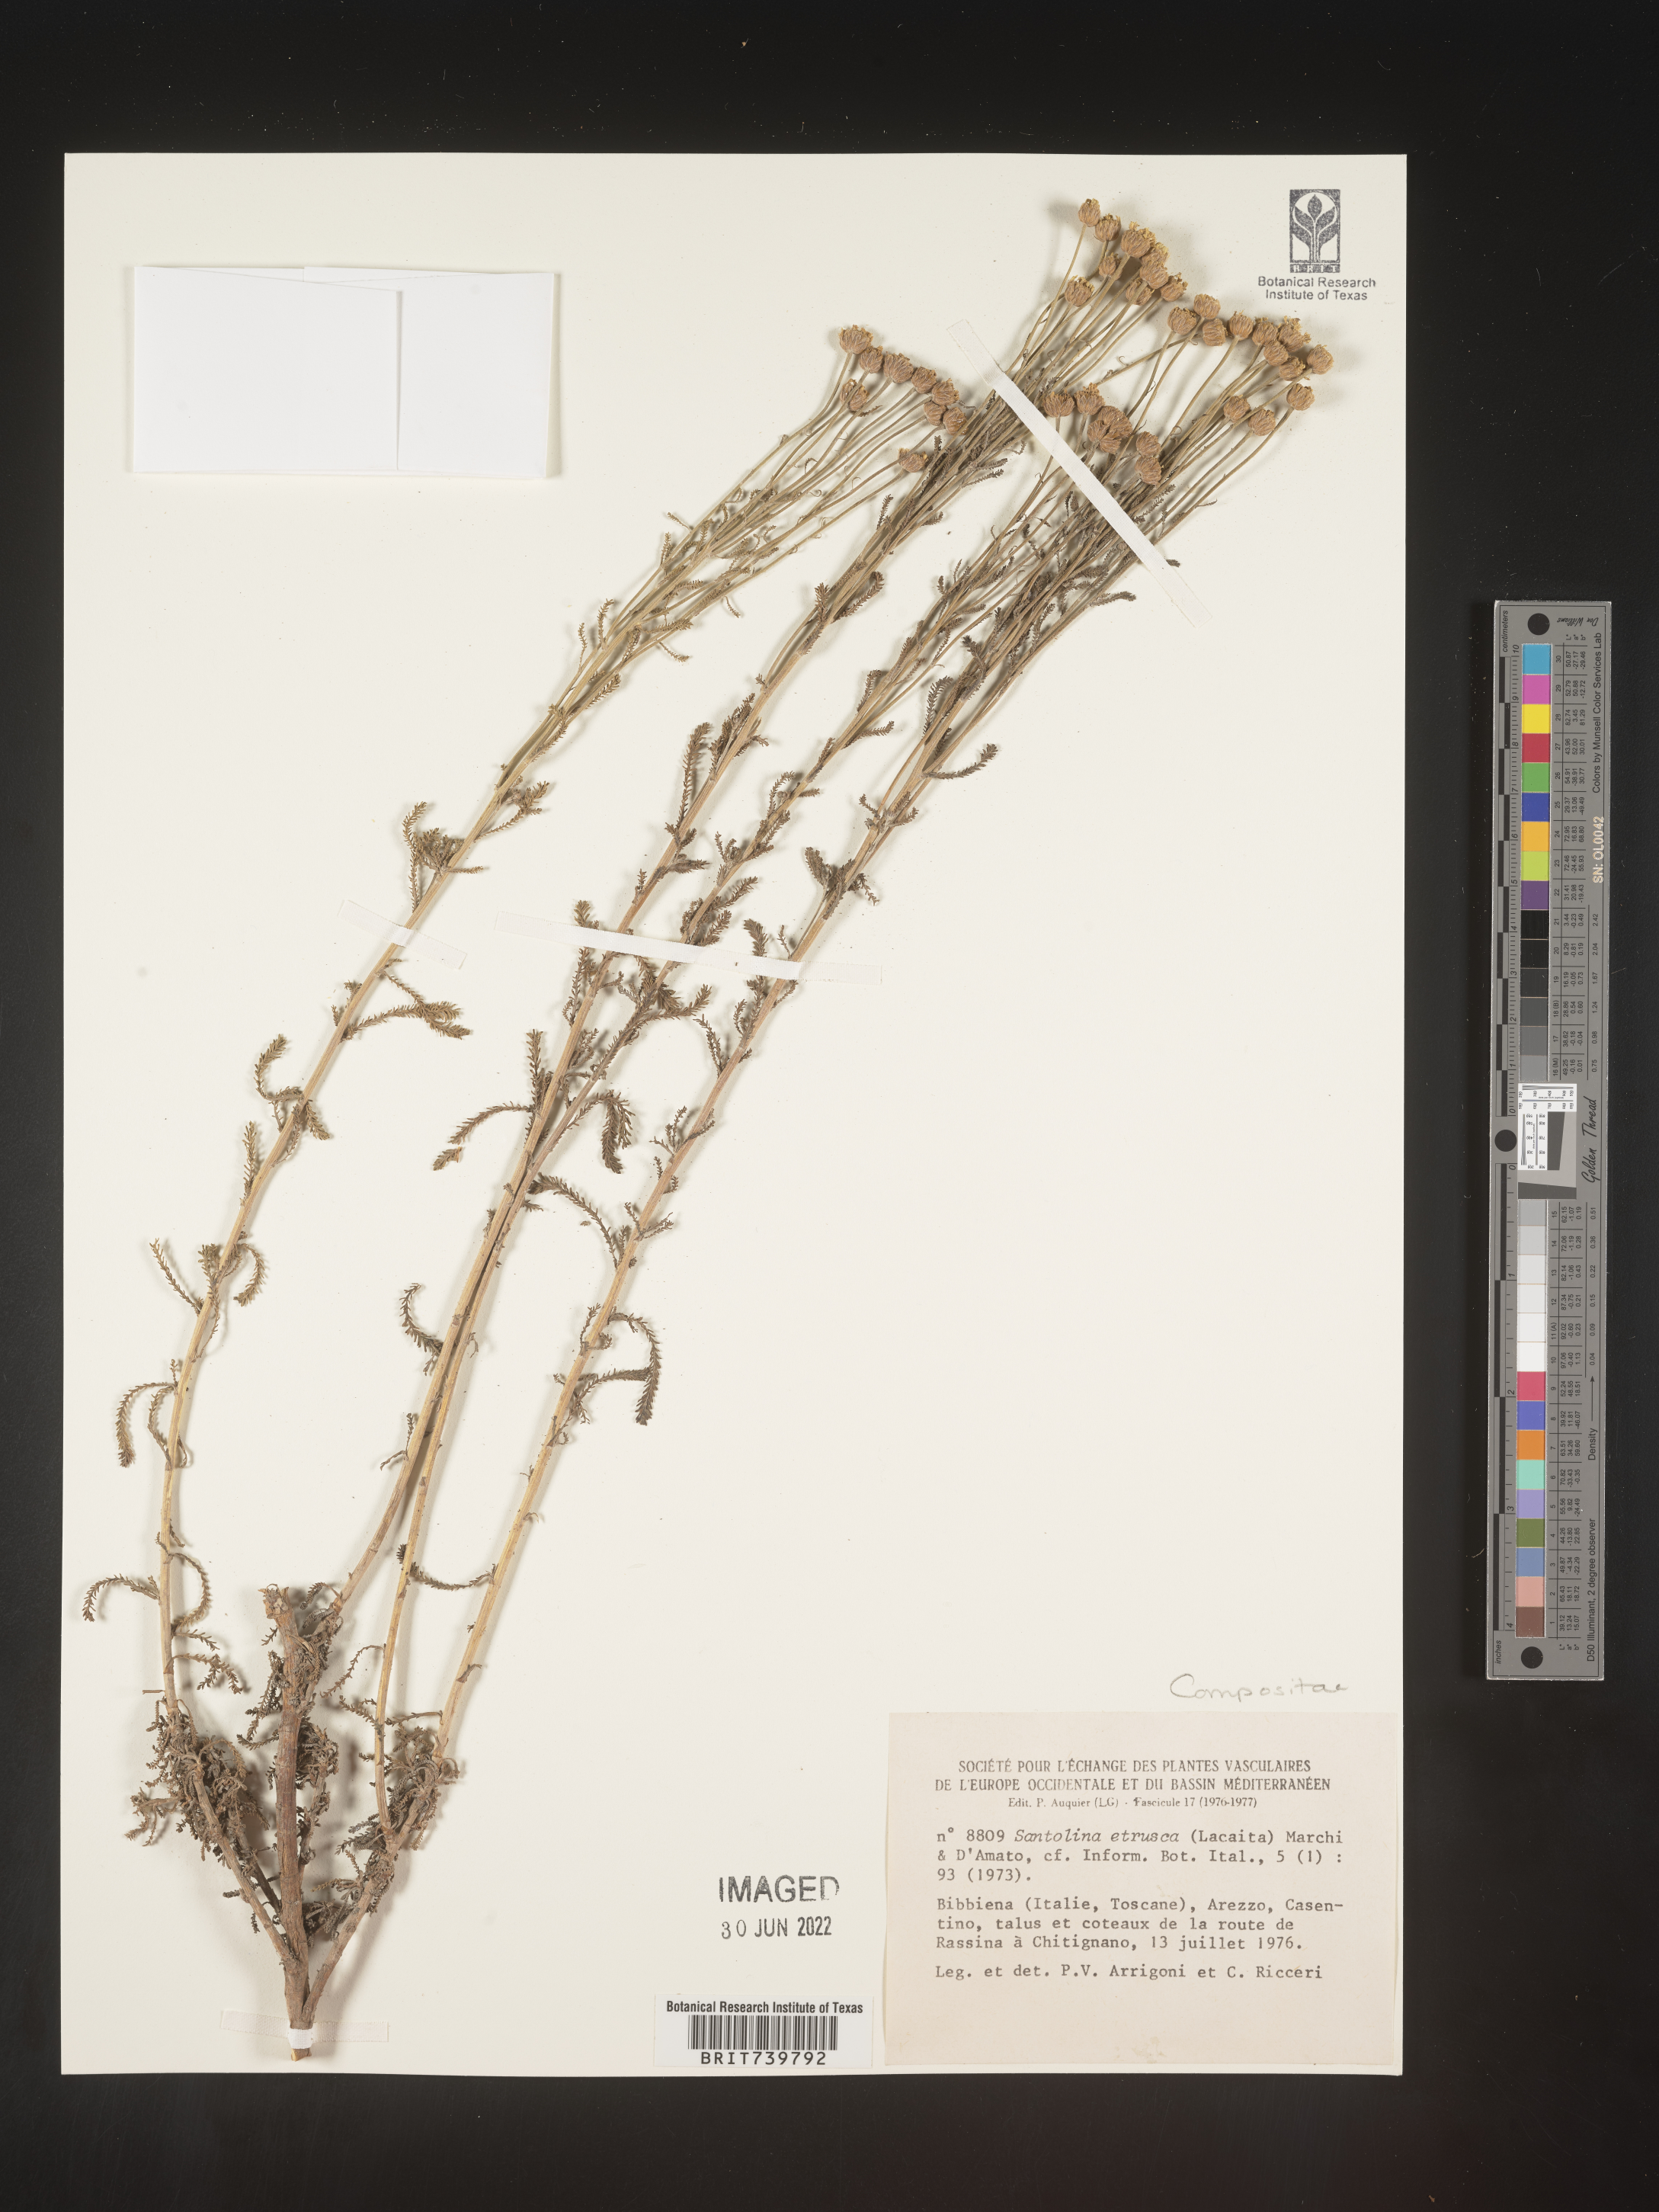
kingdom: Plantae
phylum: Tracheophyta
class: Magnoliopsida
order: Asterales
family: Asteraceae
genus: Santolina
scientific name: Santolina
